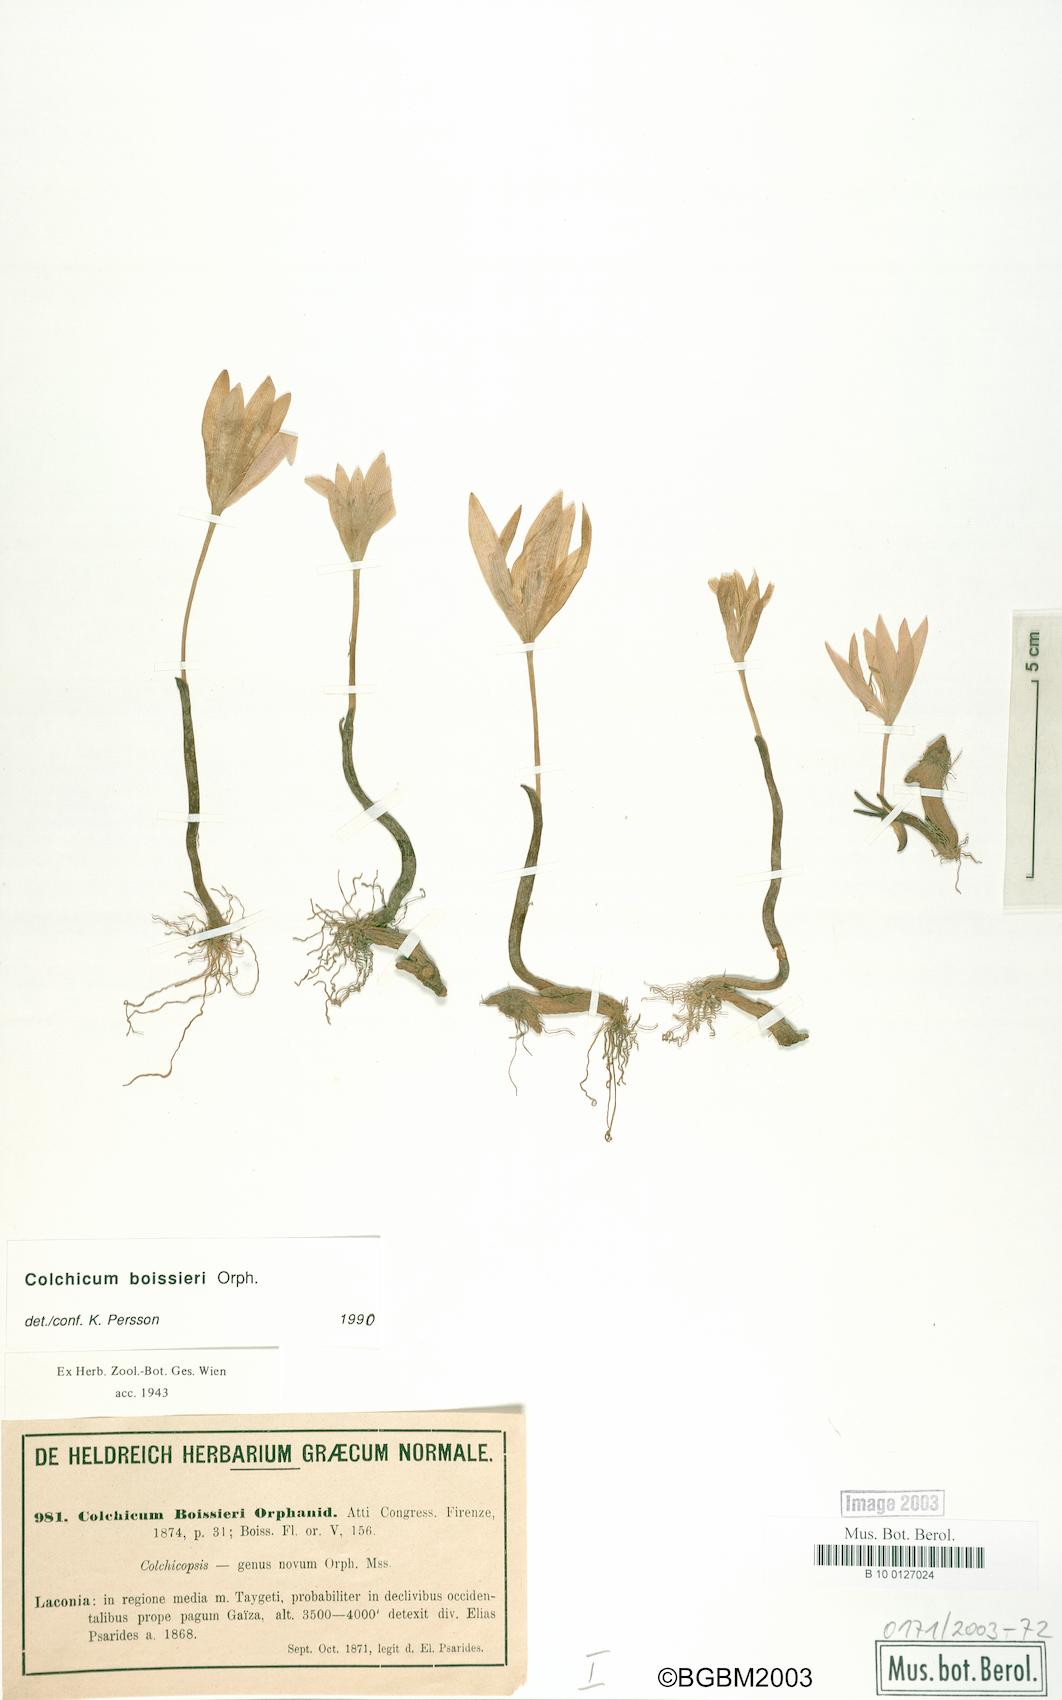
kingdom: Plantae
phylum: Tracheophyta
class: Liliopsida
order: Liliales
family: Colchicaceae
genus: Colchicum
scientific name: Colchicum boissieri
